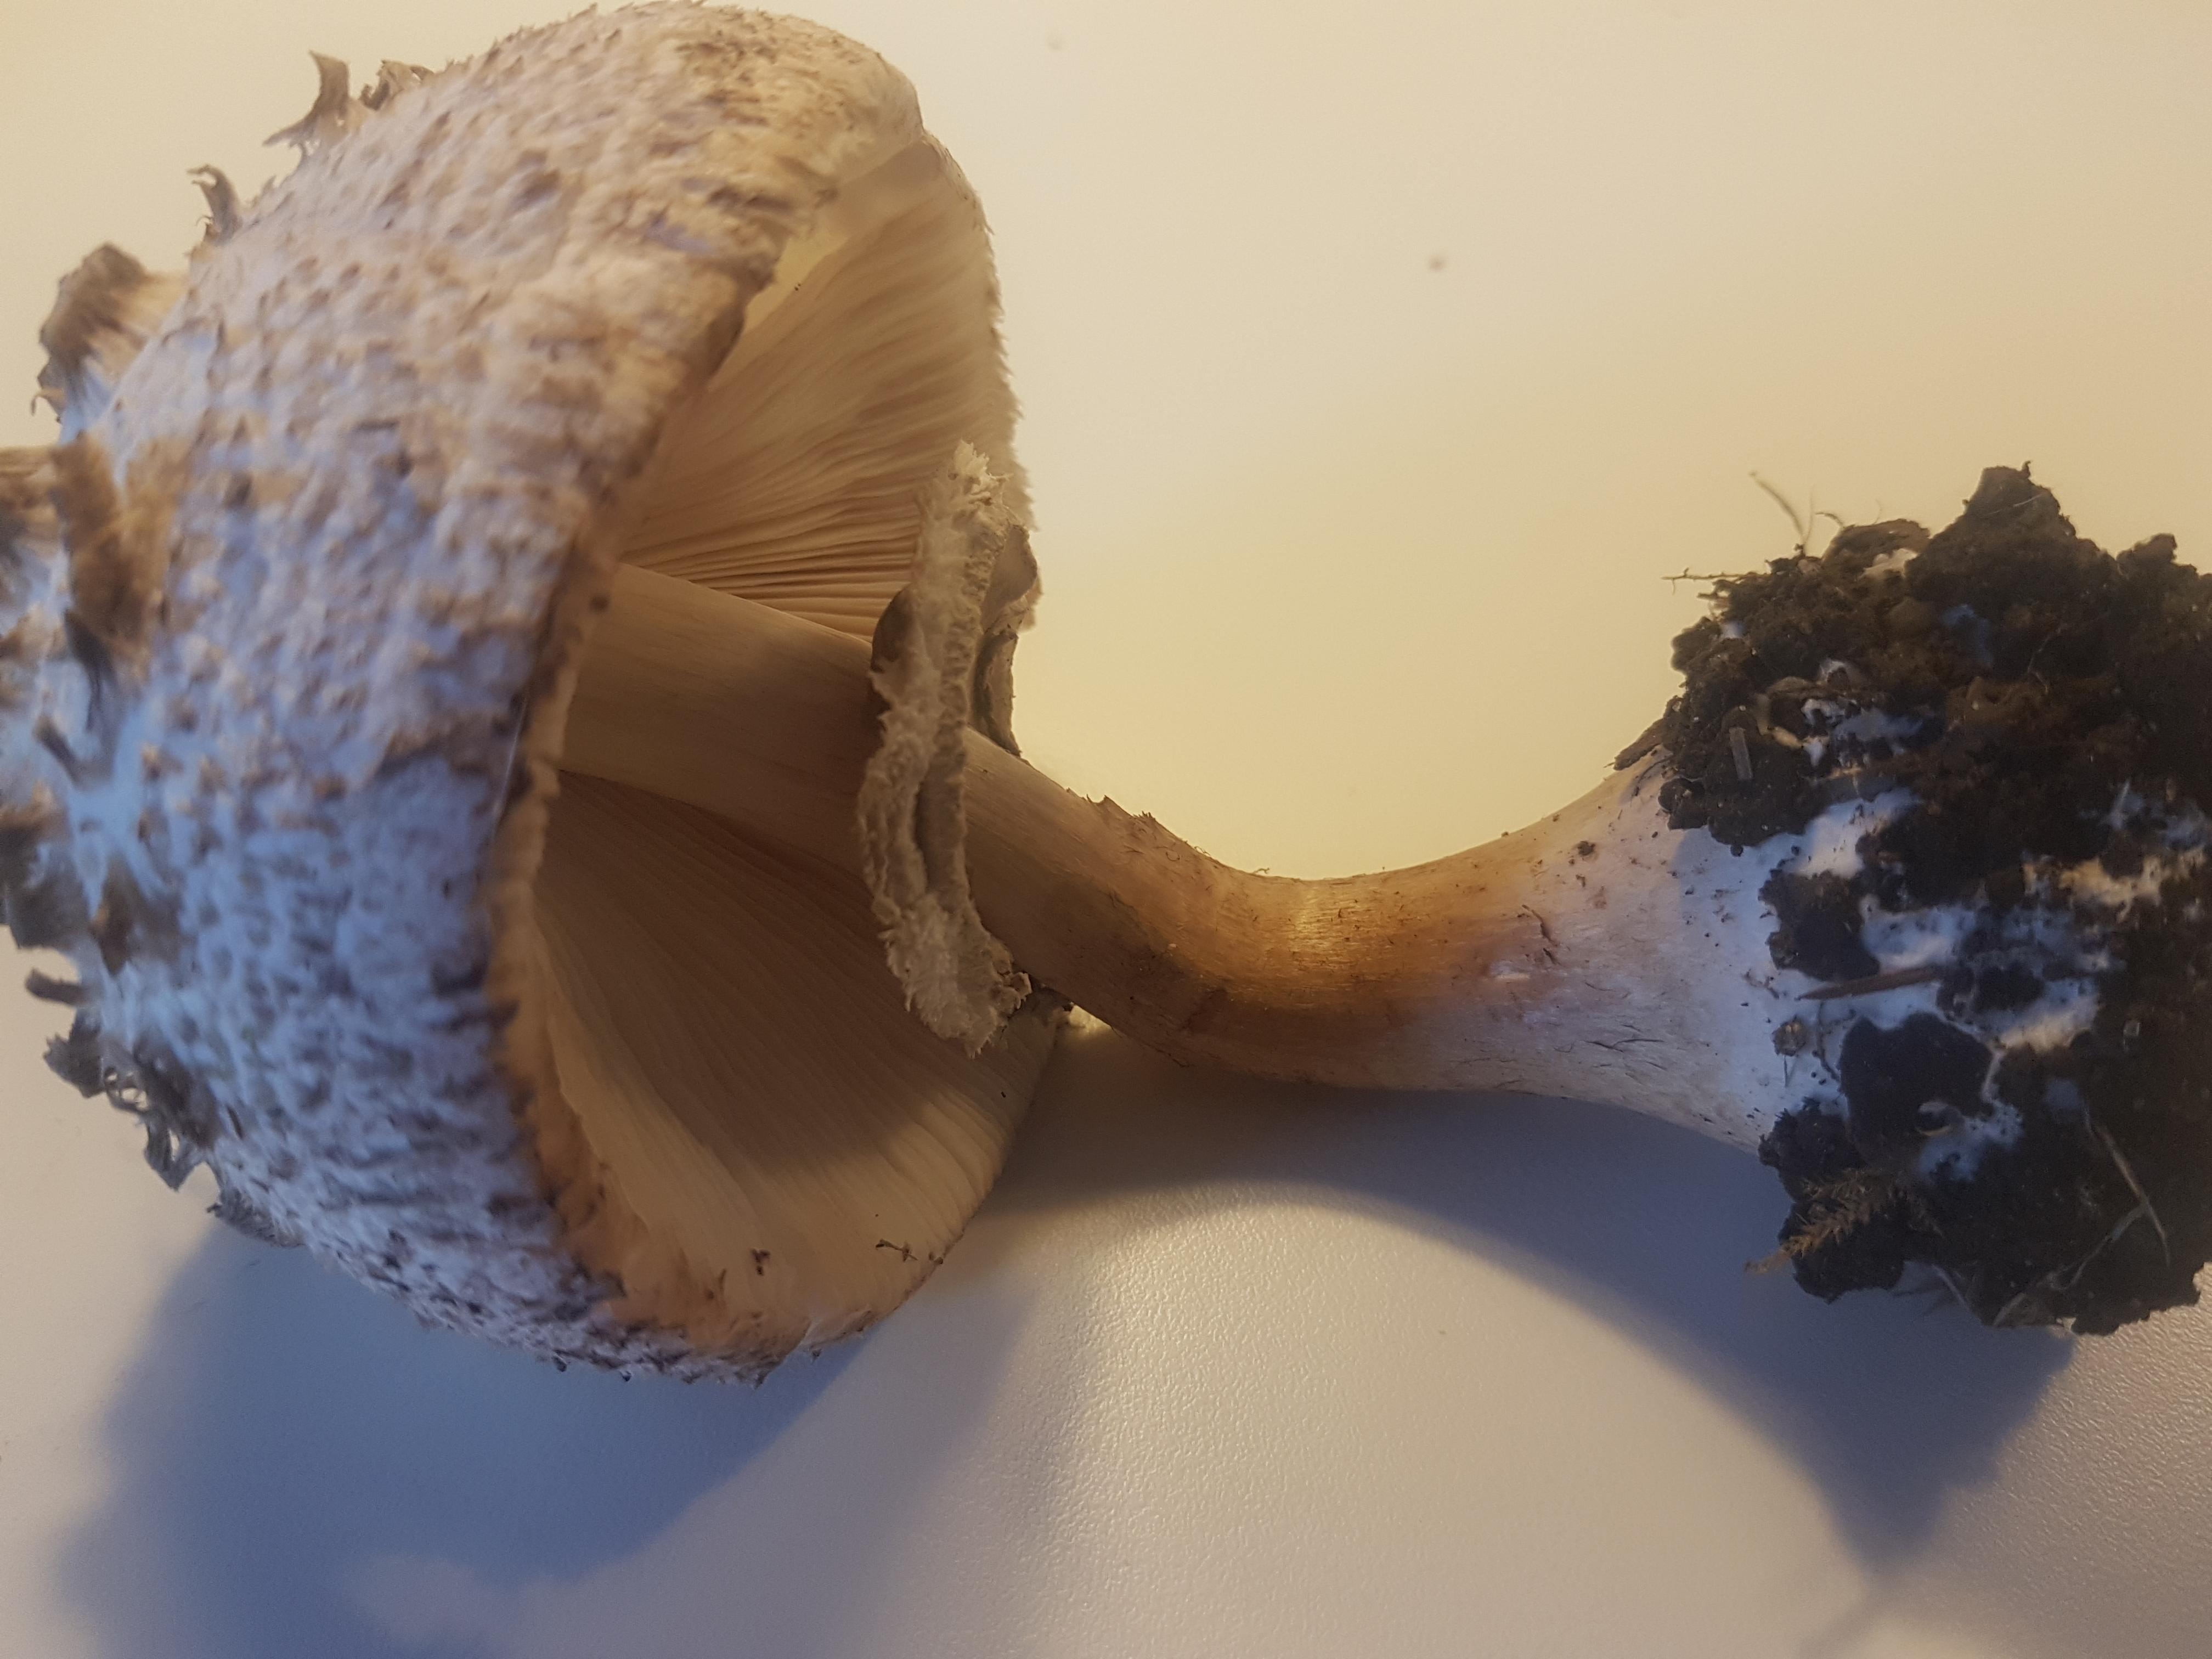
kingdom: Fungi
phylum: Basidiomycota
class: Agaricomycetes
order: Agaricales
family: Agaricaceae
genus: Chlorophyllum
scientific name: Chlorophyllum
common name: rabarberhat
